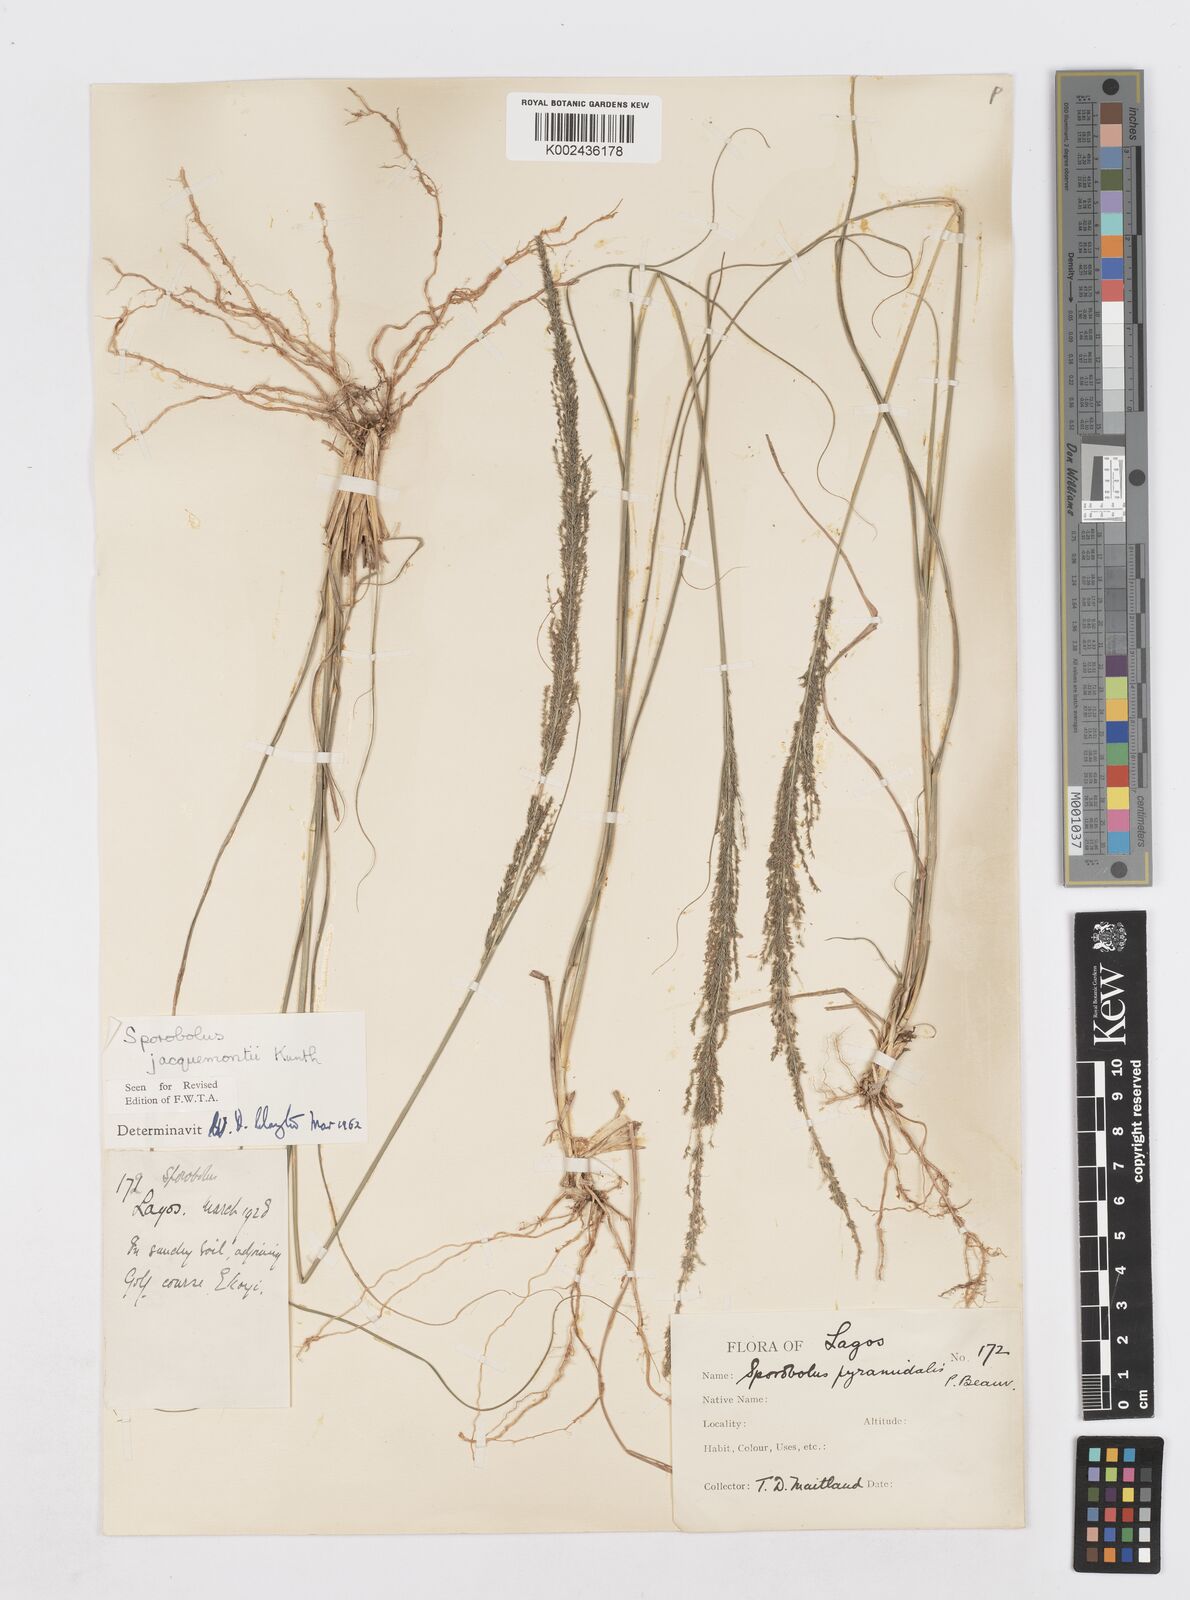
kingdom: Plantae
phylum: Tracheophyta
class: Liliopsida
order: Poales
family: Poaceae
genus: Sporobolus
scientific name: Sporobolus pyramidalis
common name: West indian dropseed
